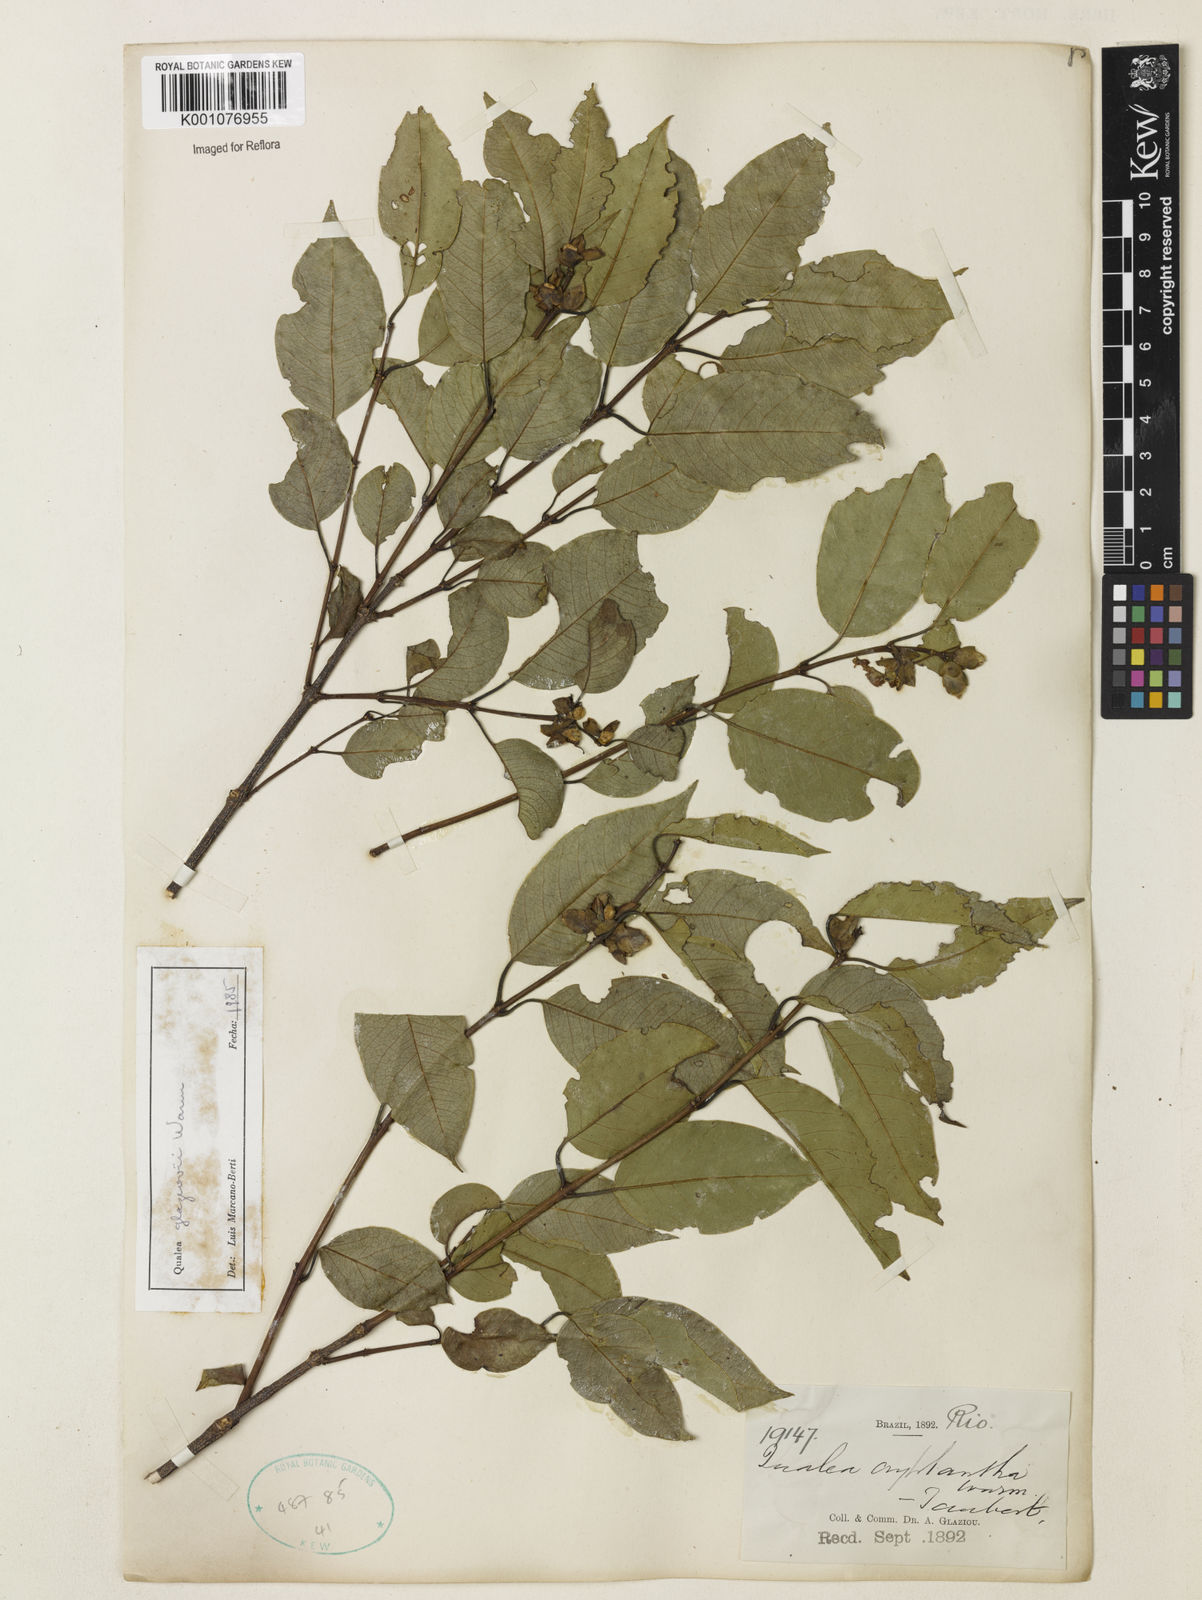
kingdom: Plantae
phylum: Tracheophyta
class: Magnoliopsida
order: Myrtales
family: Vochysiaceae
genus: Qualea
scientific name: Qualea glaziovii
